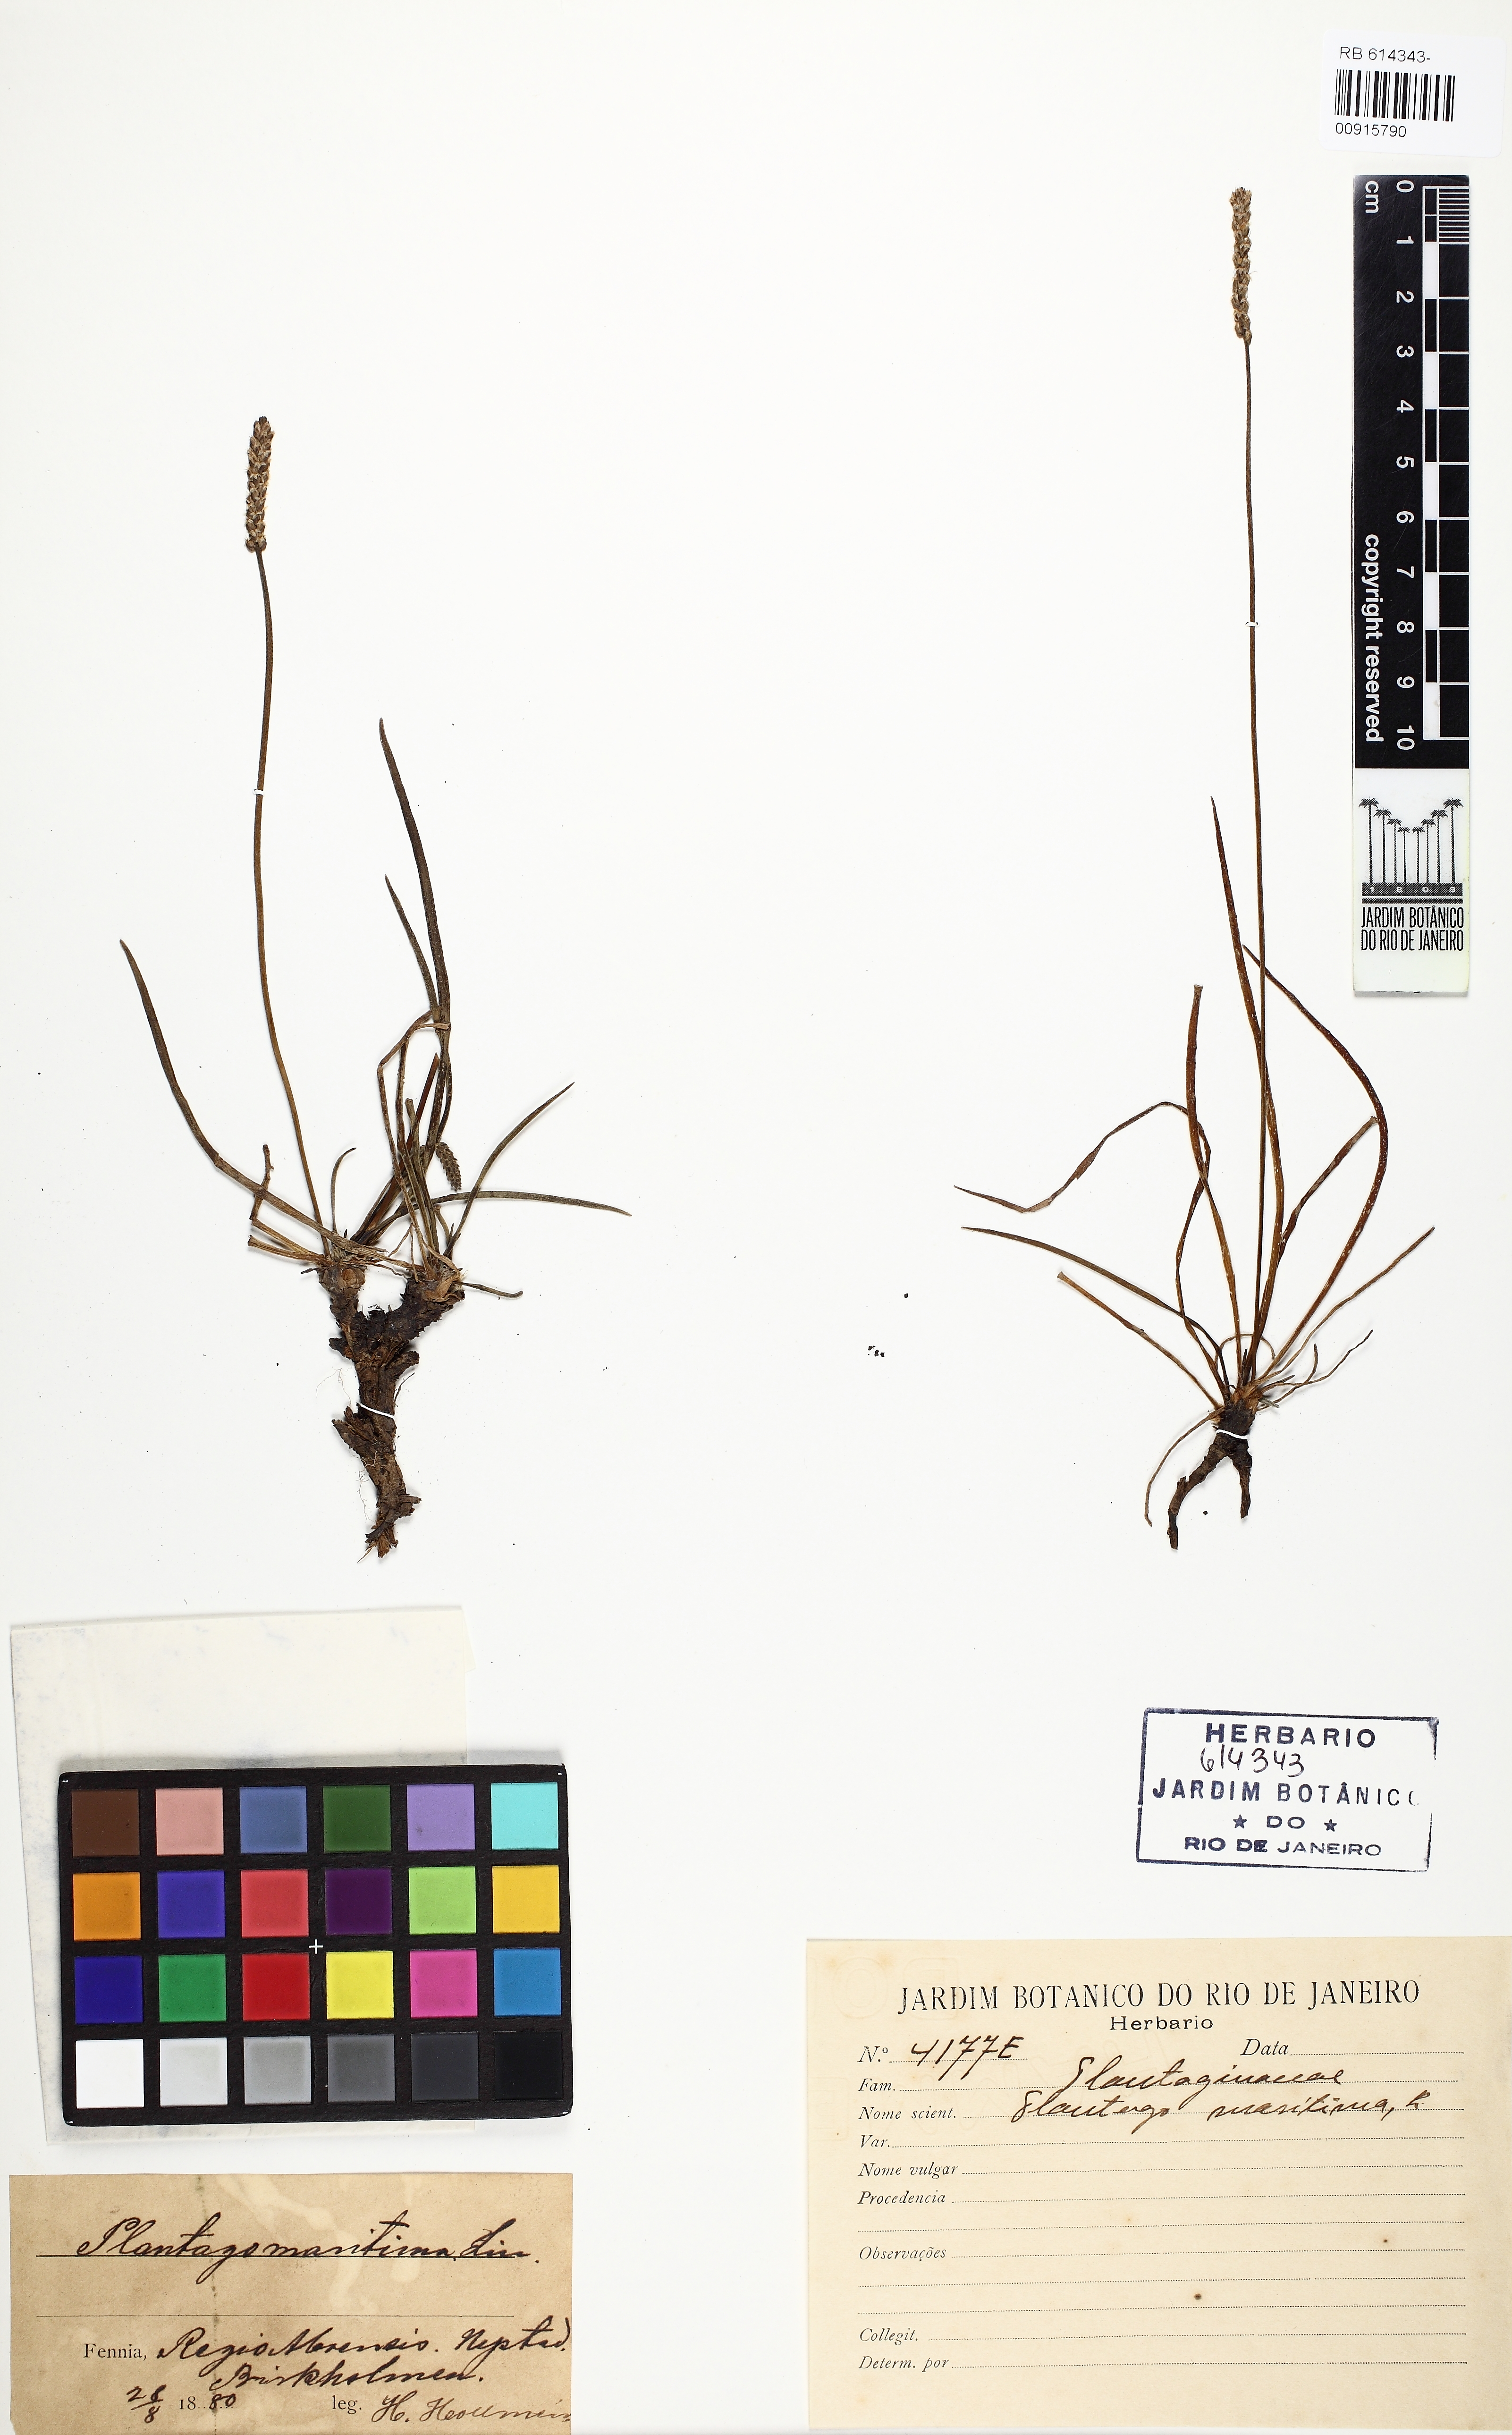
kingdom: Plantae
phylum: Tracheophyta
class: Magnoliopsida
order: Lamiales
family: Plantaginaceae
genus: Plantago
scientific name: Plantago maritima
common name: Sea plantain
